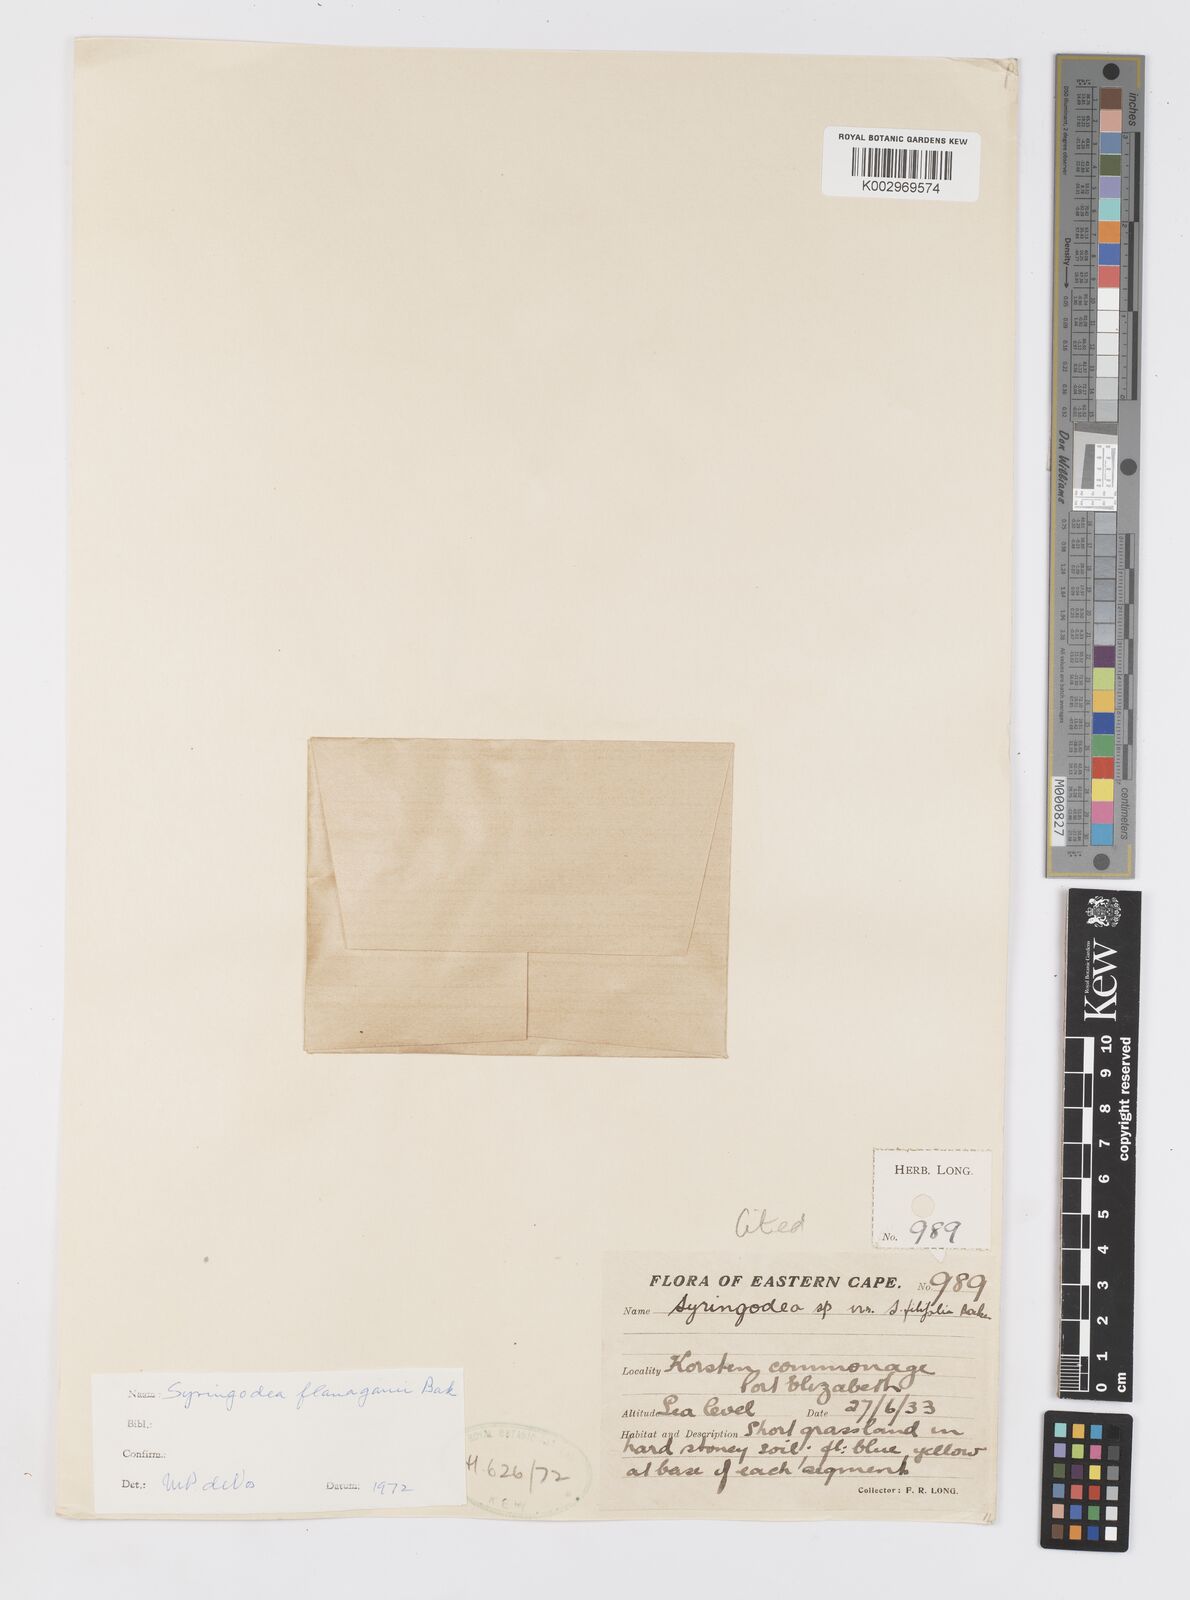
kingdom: Plantae
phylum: Tracheophyta
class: Liliopsida
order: Asparagales
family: Iridaceae
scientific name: Iridaceae
